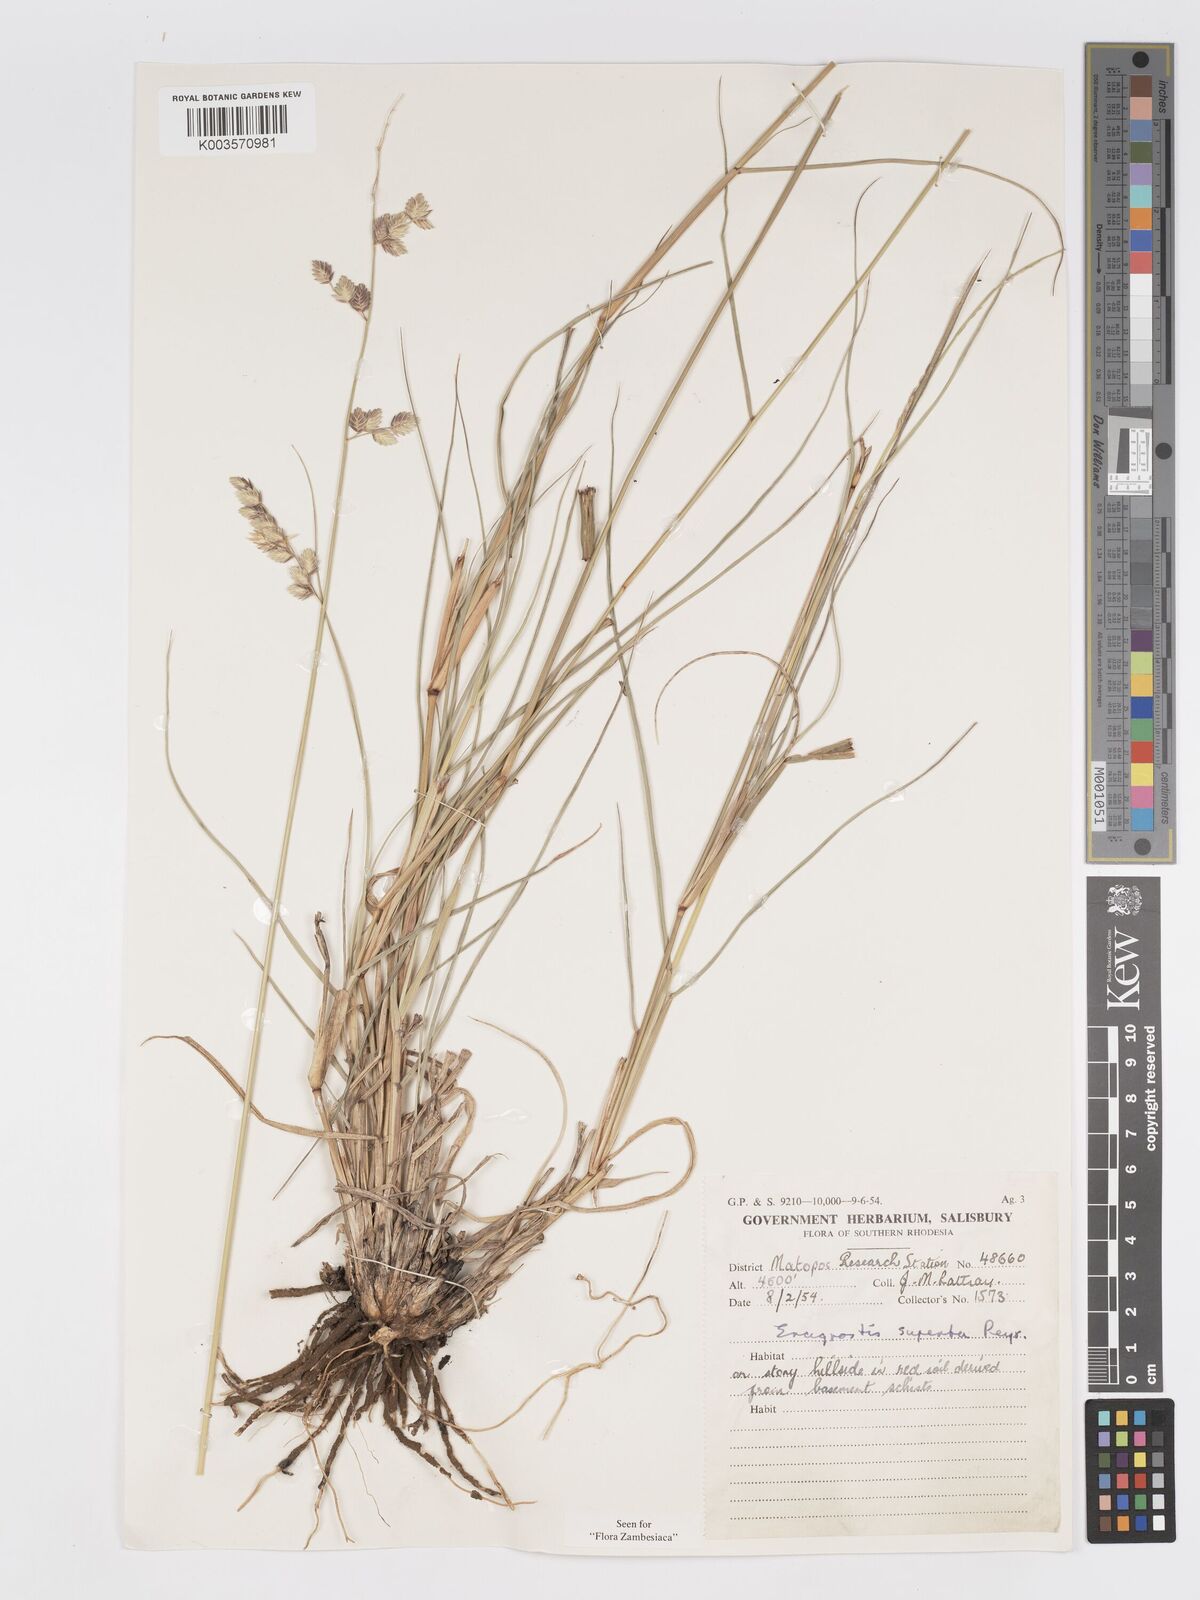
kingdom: Plantae
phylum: Tracheophyta
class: Liliopsida
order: Poales
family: Poaceae
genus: Eragrostis
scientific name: Eragrostis superba
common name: Wilman lovegrass
